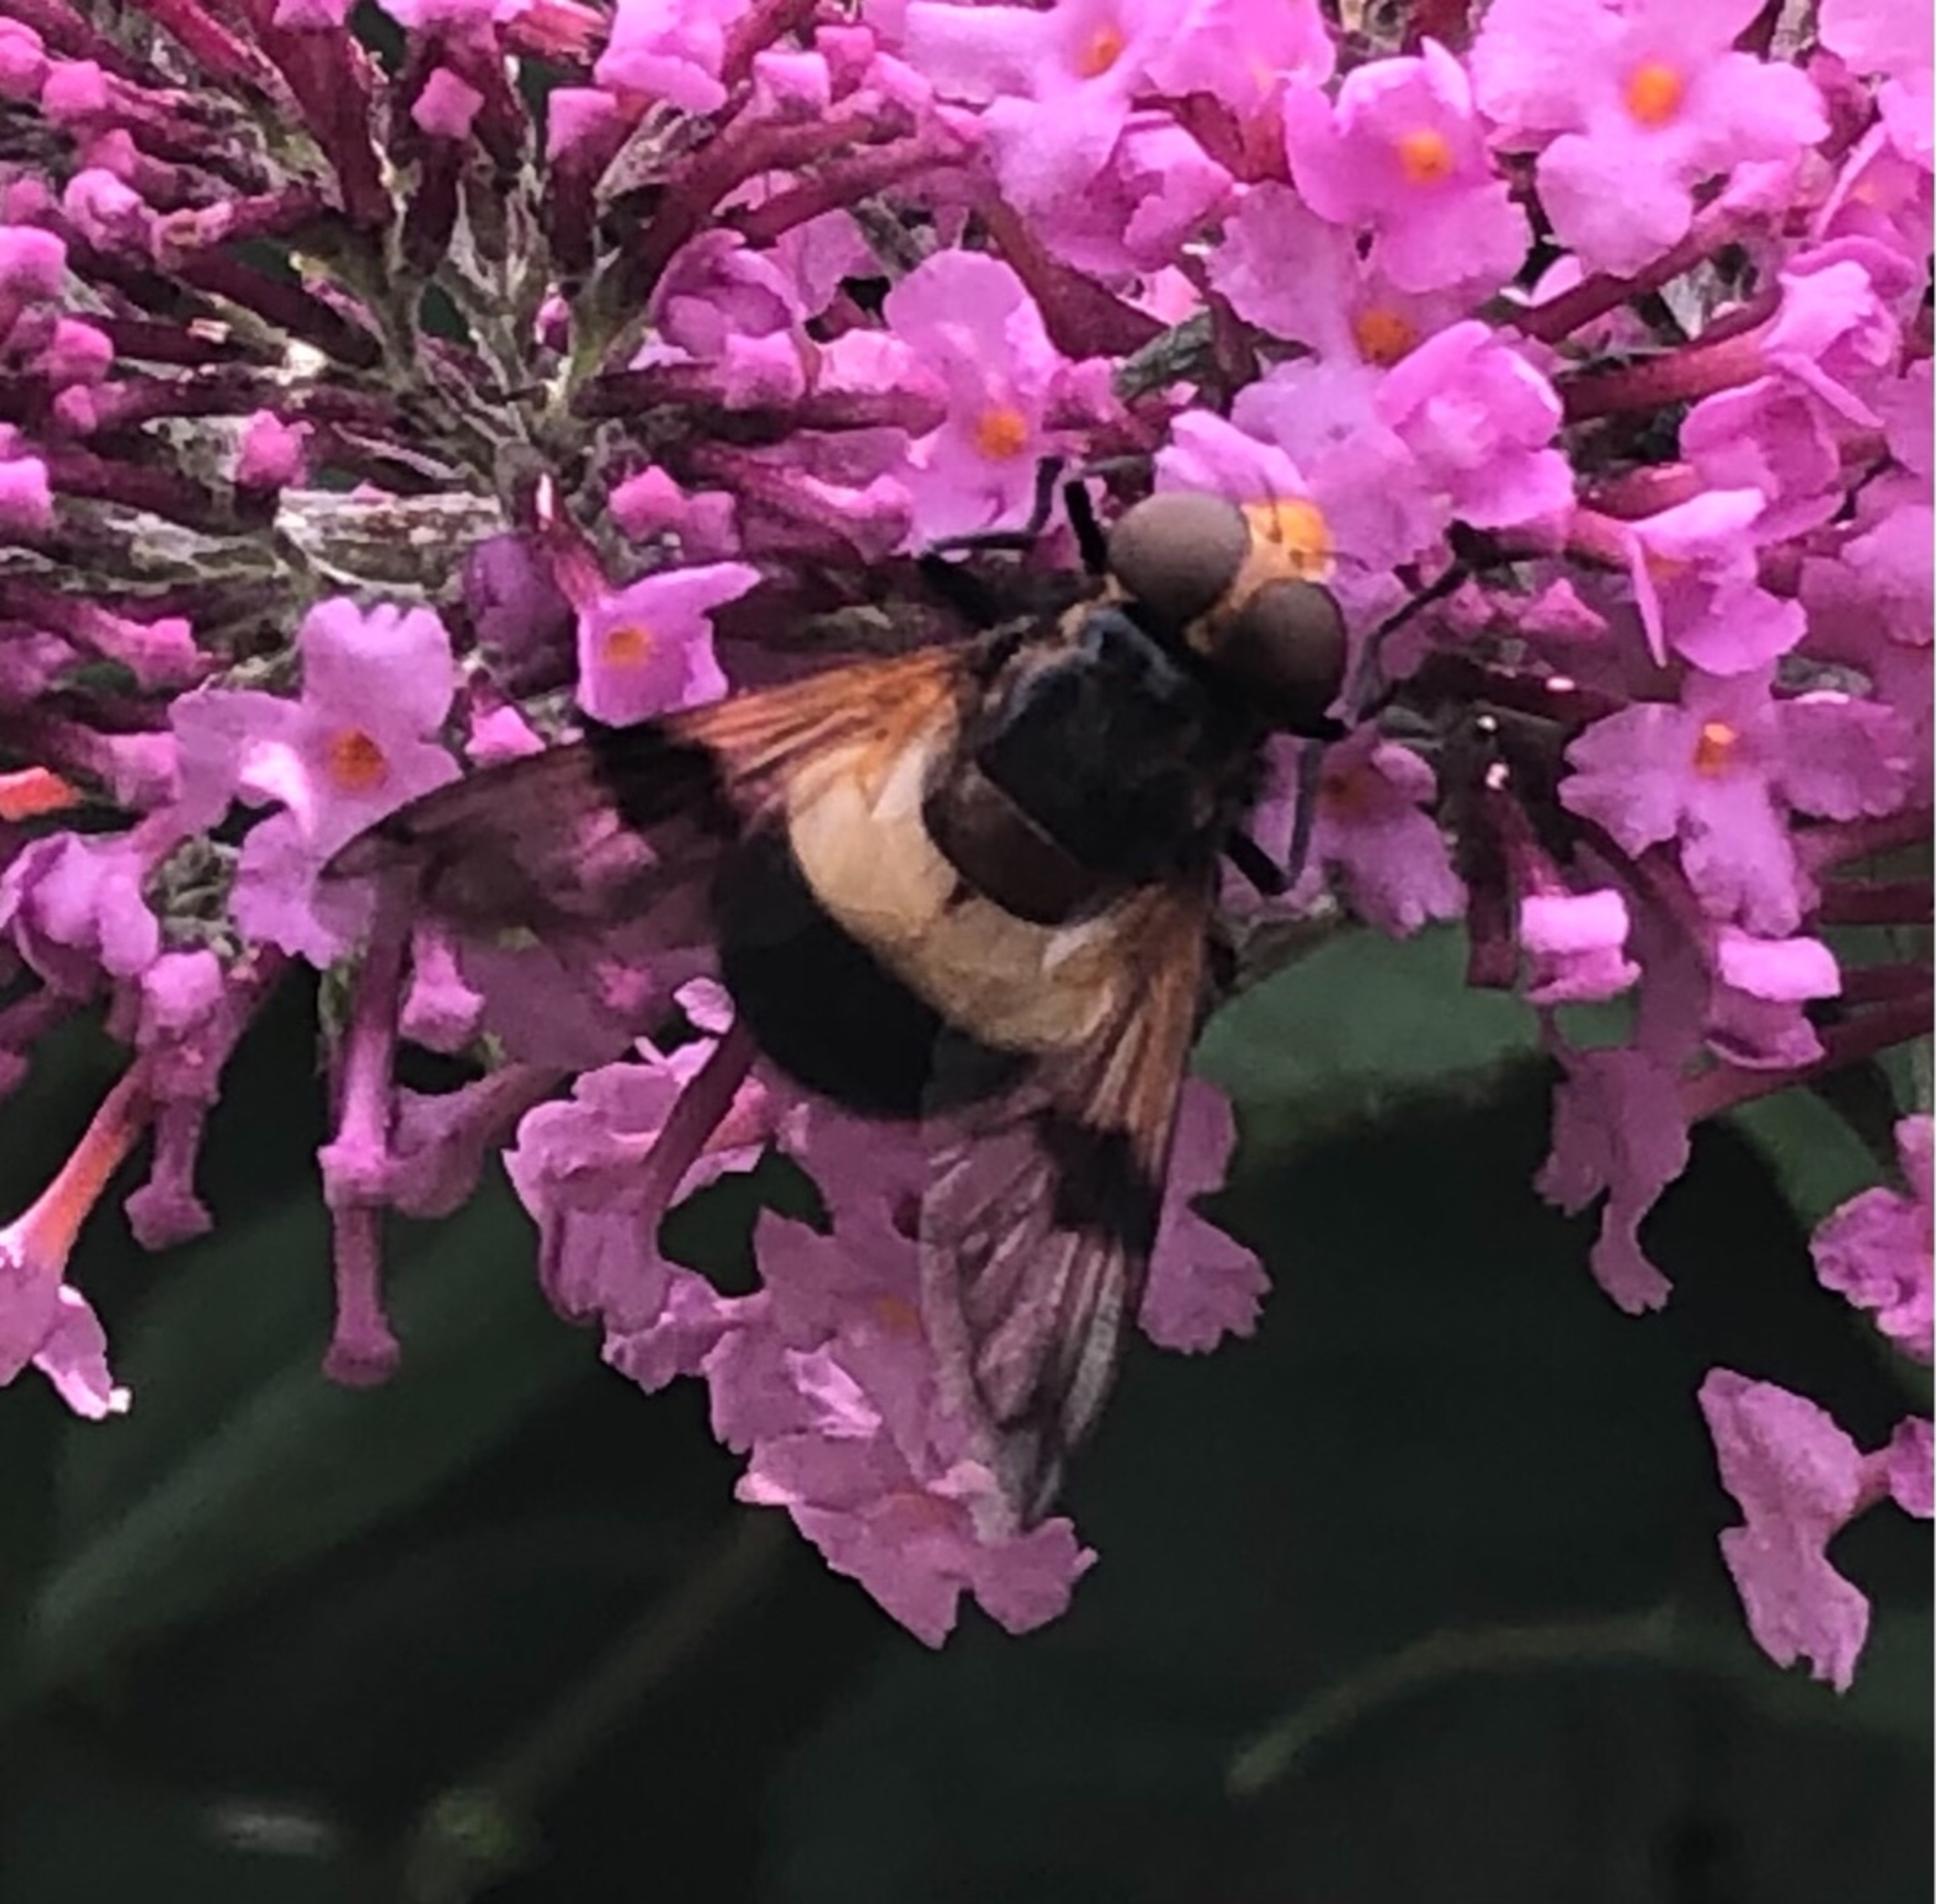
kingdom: Animalia
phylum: Arthropoda
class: Insecta
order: Diptera
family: Syrphidae
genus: Volucella
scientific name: Volucella pellucens
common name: Hvidbåndet humlesvirreflue
